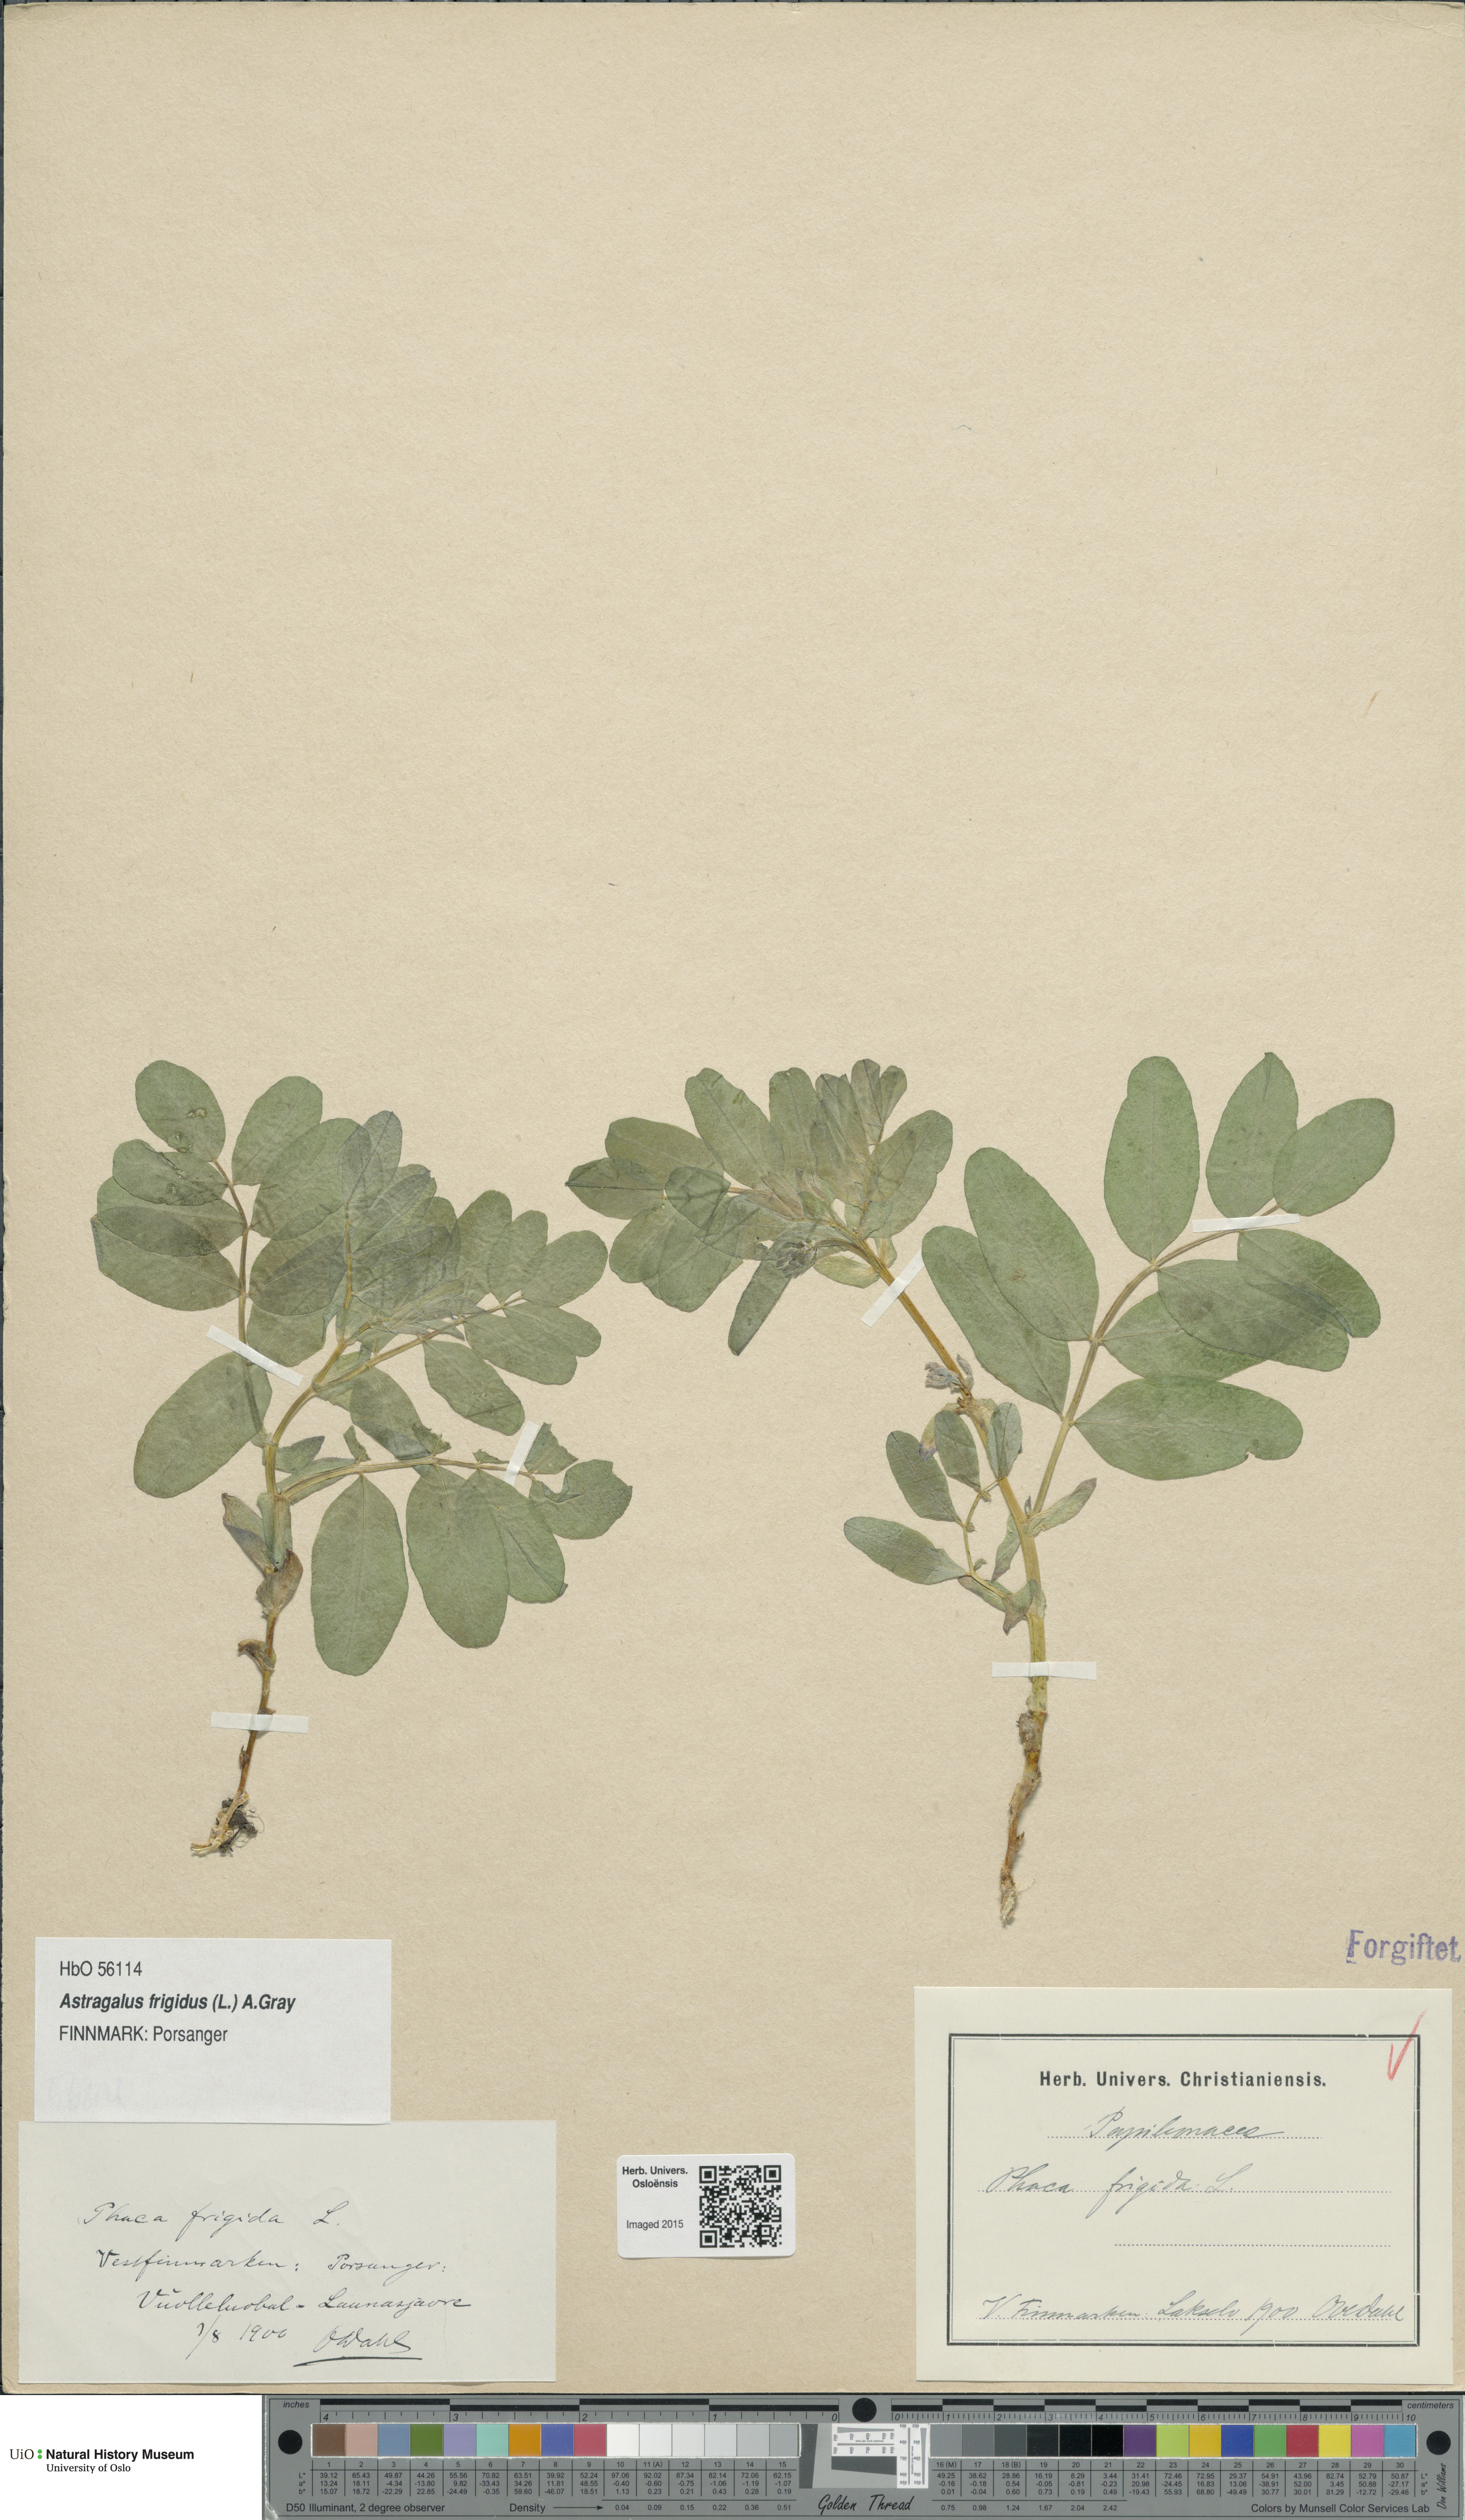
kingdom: Plantae
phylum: Tracheophyta
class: Magnoliopsida
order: Fabales
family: Fabaceae
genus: Astragalus
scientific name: Astragalus frigidus
